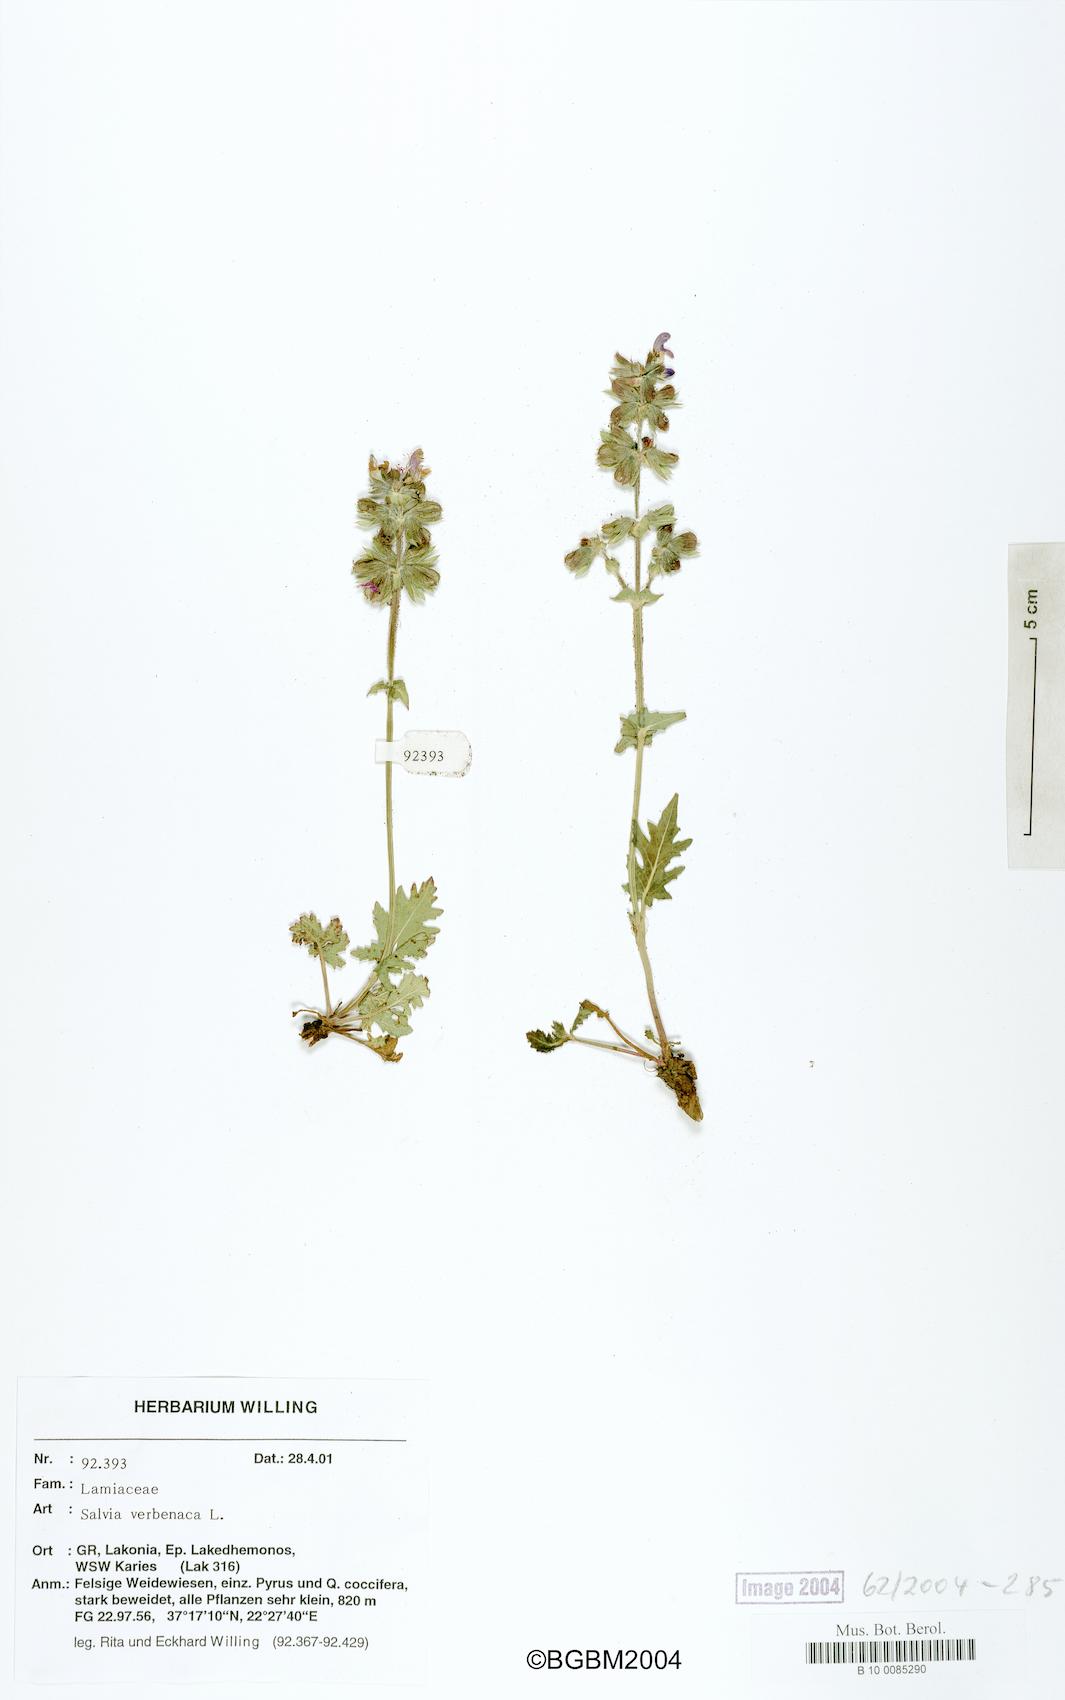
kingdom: Plantae
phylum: Tracheophyta
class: Magnoliopsida
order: Lamiales
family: Lamiaceae
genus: Salvia
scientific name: Salvia verbenaca
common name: Wild clary
